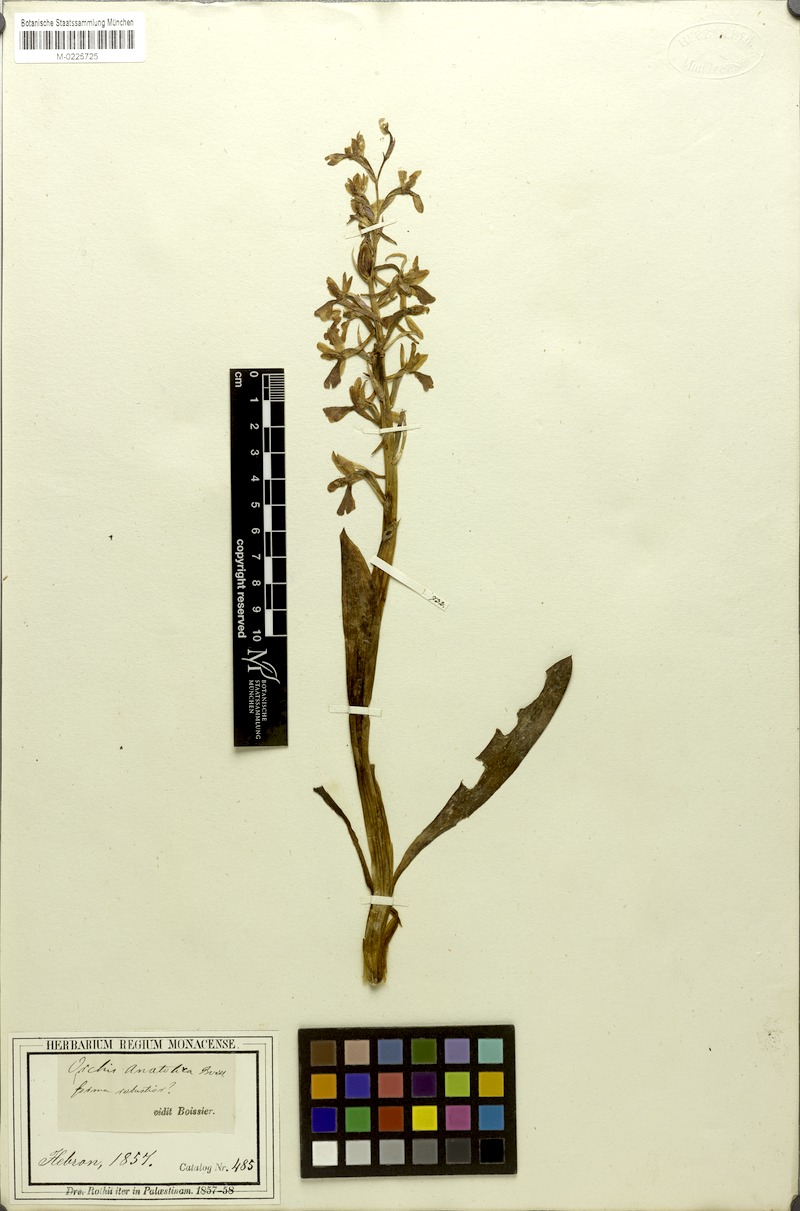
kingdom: Plantae
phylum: Tracheophyta
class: Liliopsida
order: Asparagales
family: Orchidaceae
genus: Orchis
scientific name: Orchis anatolica
